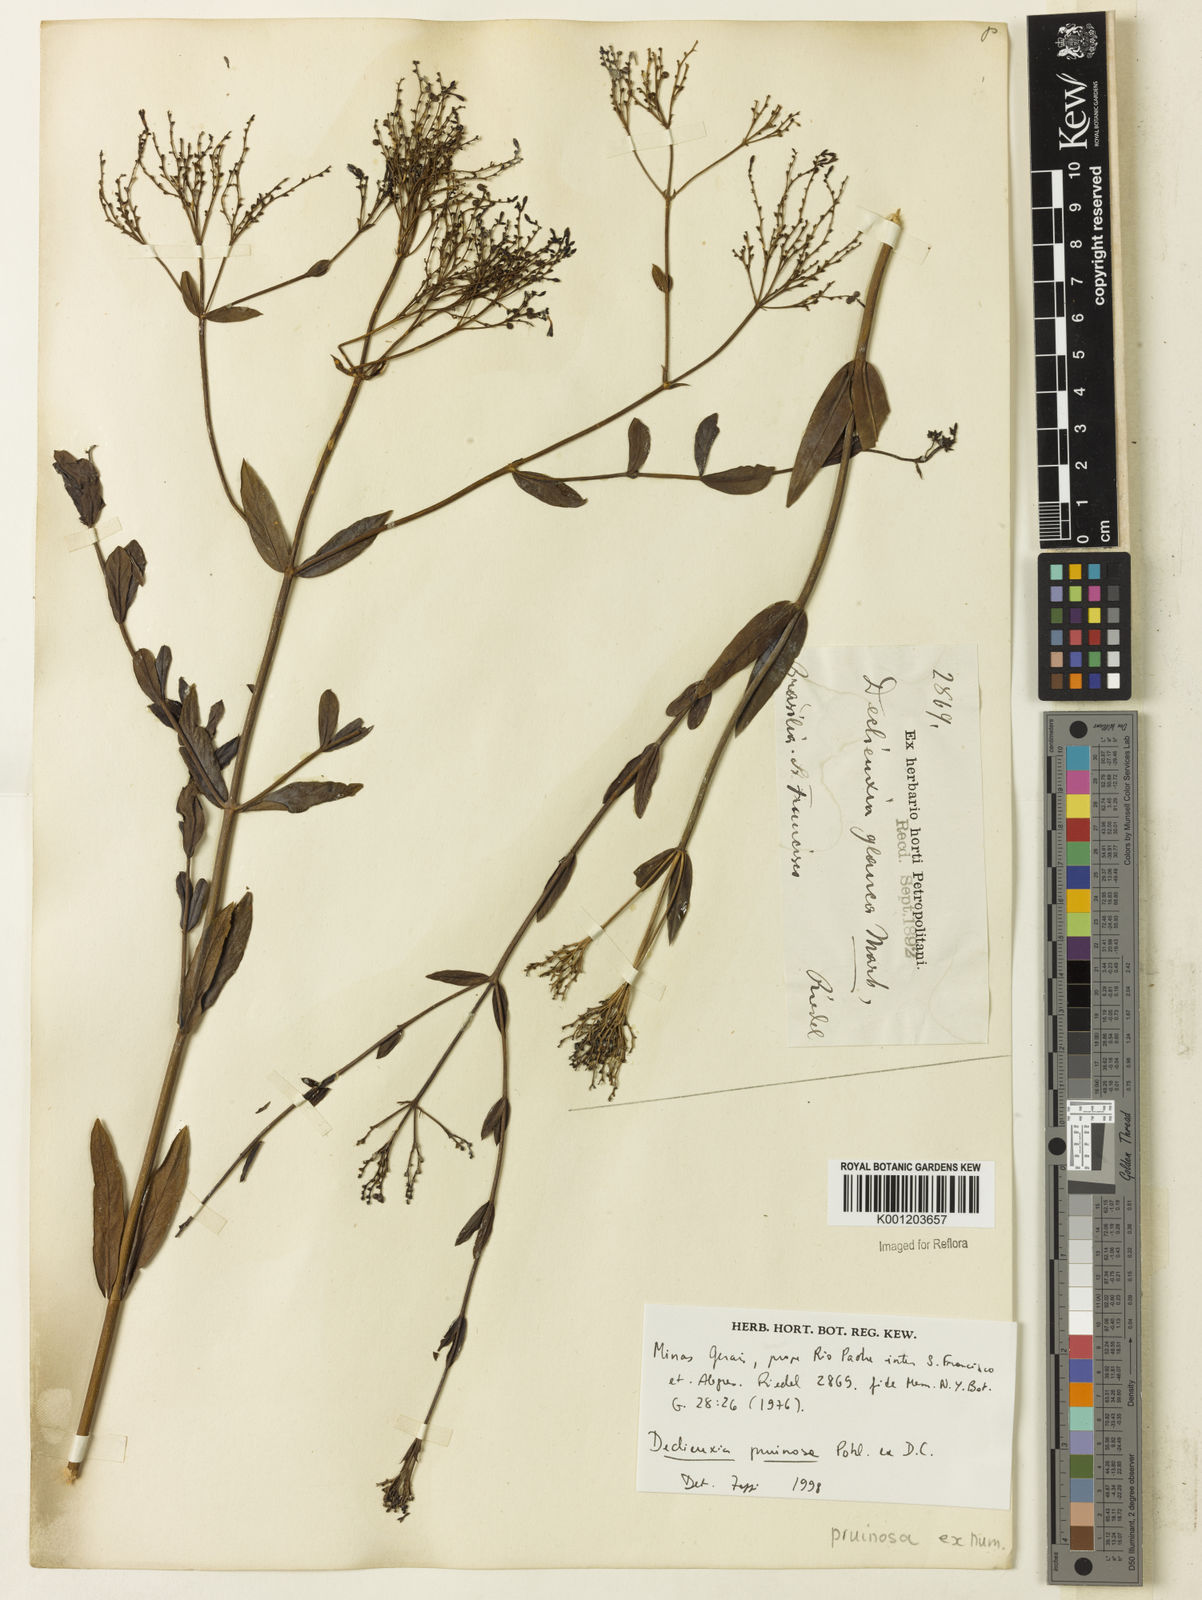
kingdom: Plantae
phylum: Tracheophyta
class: Magnoliopsida
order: Gentianales
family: Rubiaceae
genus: Declieuxia
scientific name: Declieuxia pruinosa
